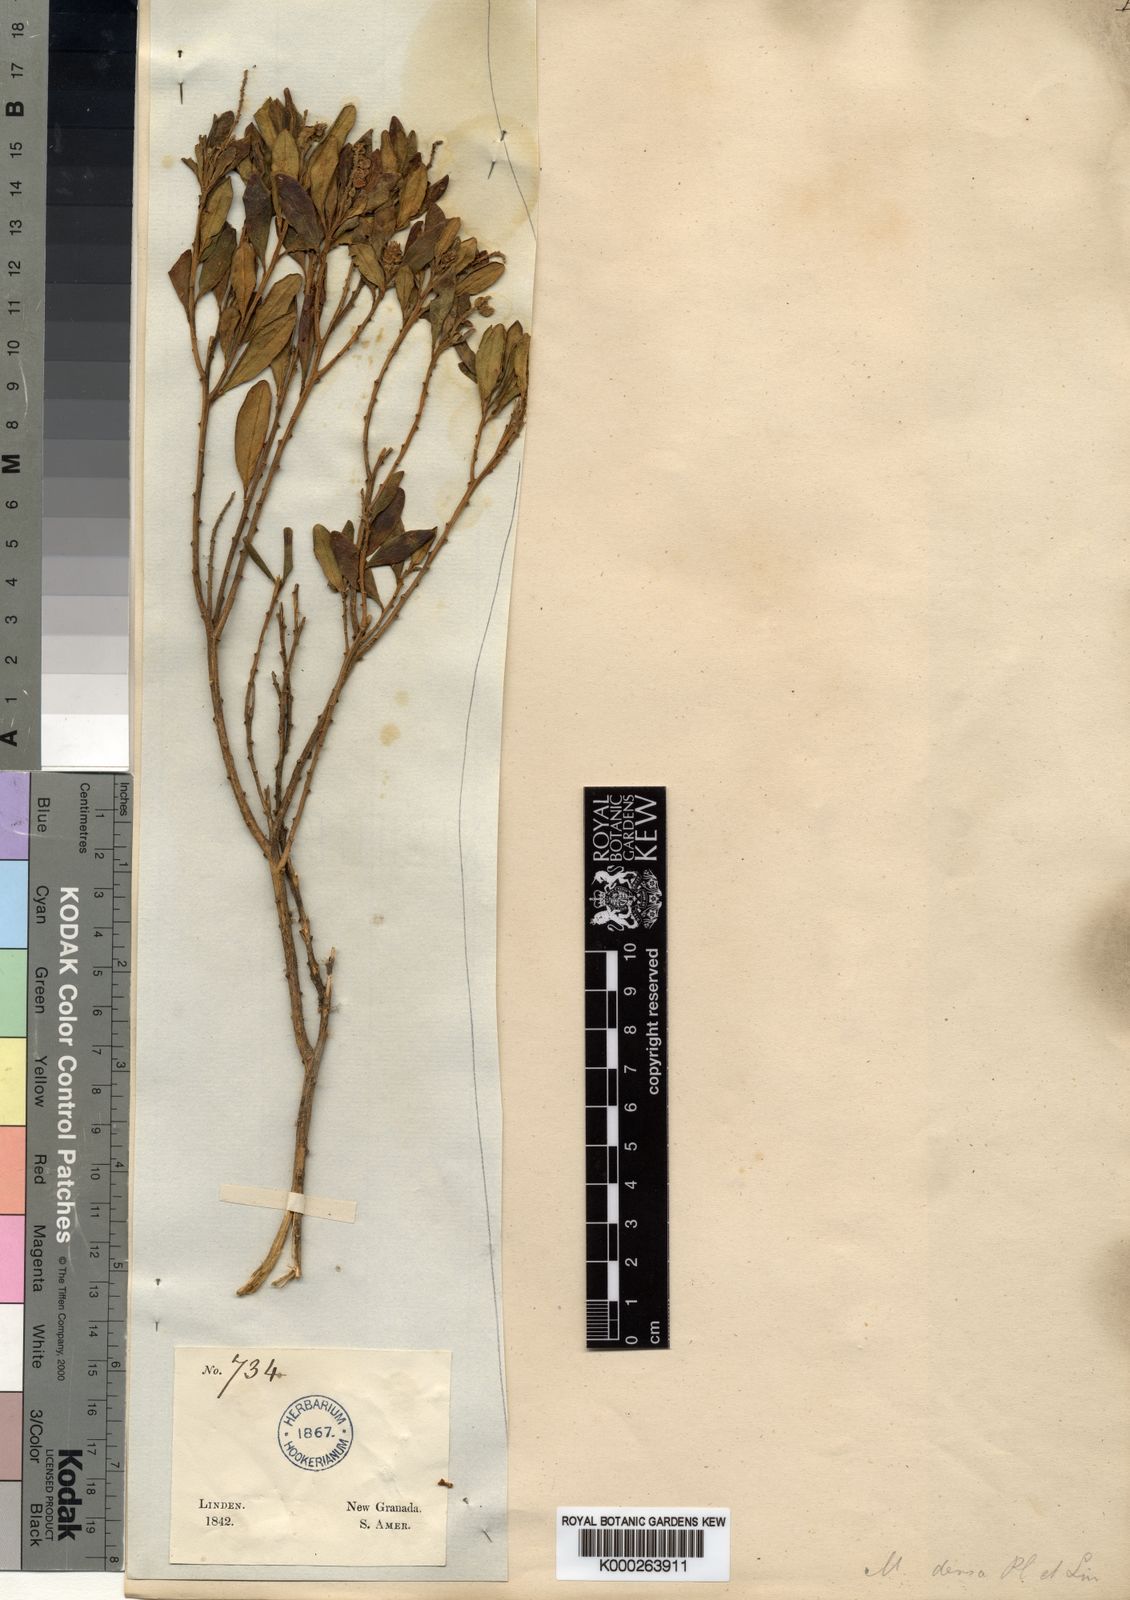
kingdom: Plantae
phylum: Tracheophyta
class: Magnoliopsida
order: Fabales
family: Polygalaceae
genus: Monnina
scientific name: Monnina densa
